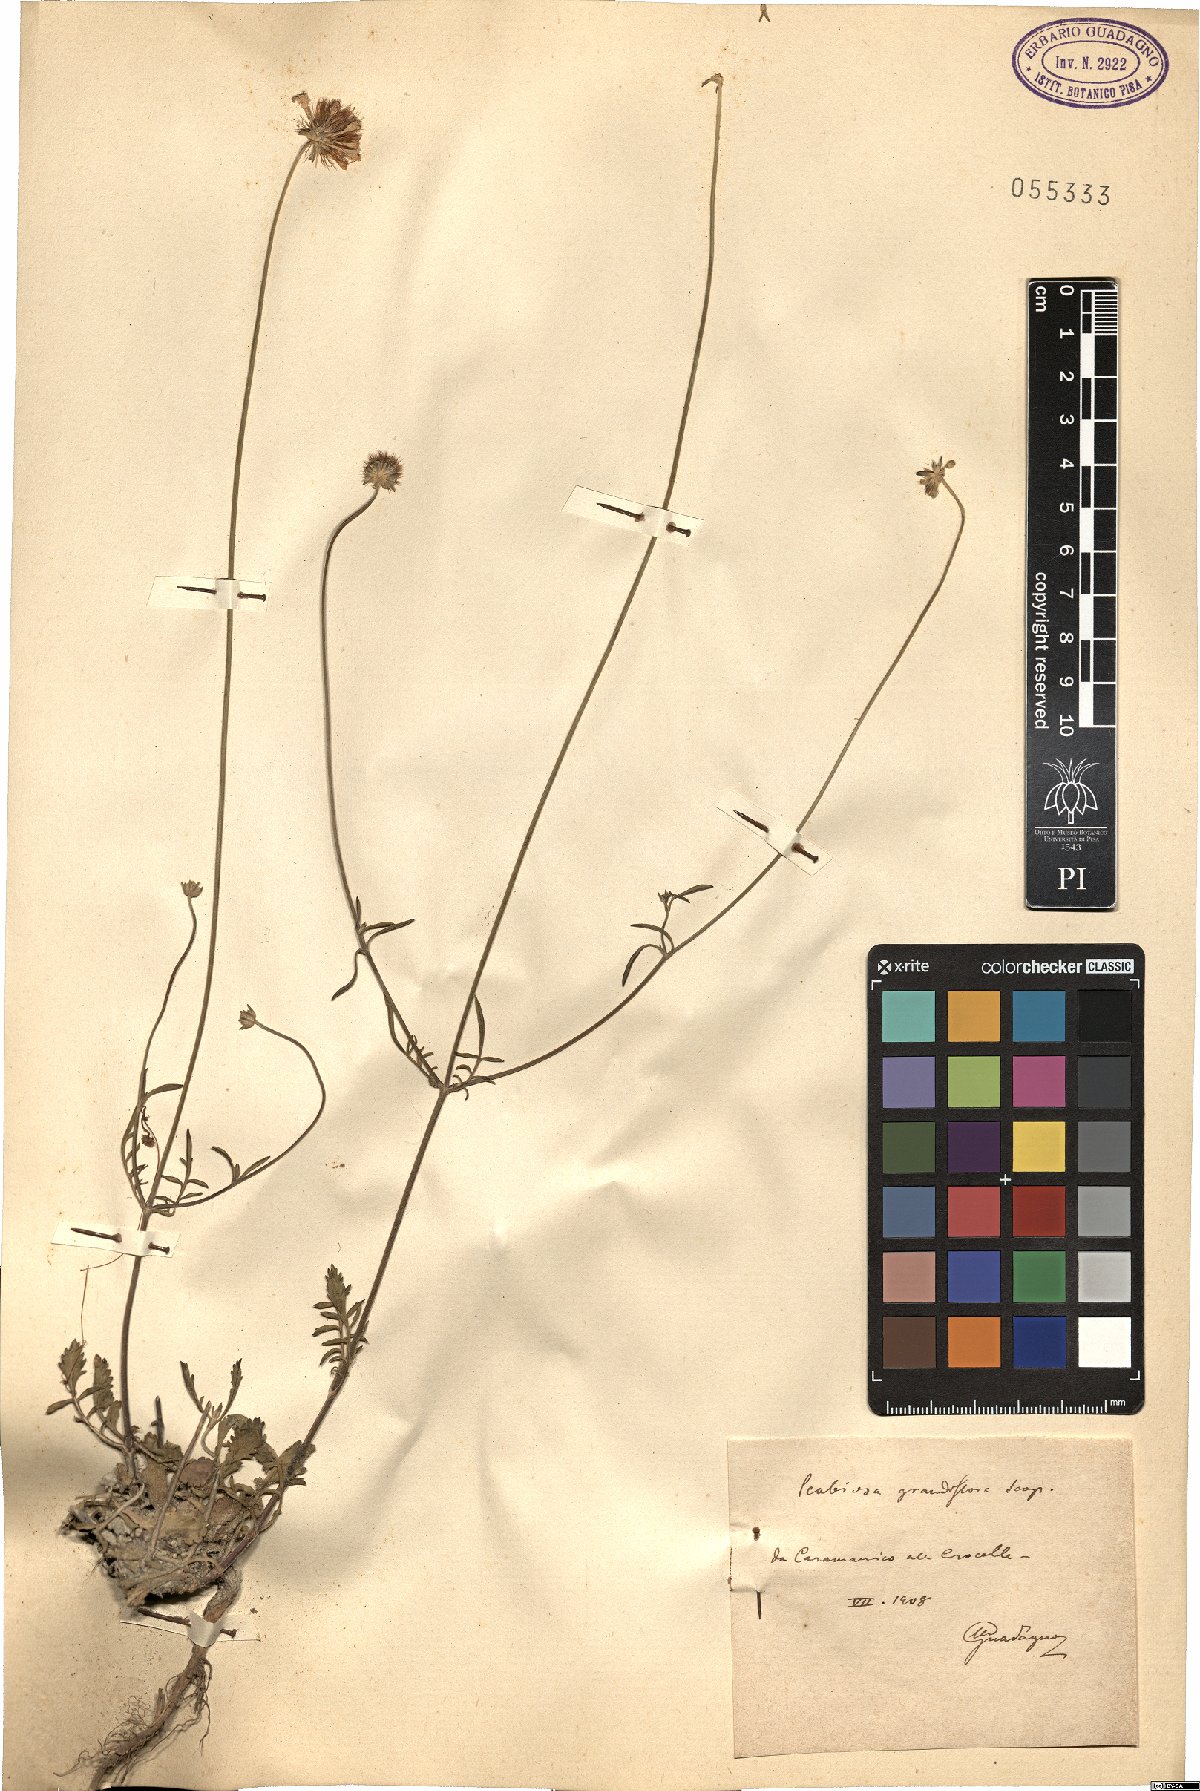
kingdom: Plantae
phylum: Tracheophyta
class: Magnoliopsida
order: Dipsacales
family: Caprifoliaceae
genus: Sixalix
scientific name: Sixalix atropurpurea
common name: Sweet scabious
